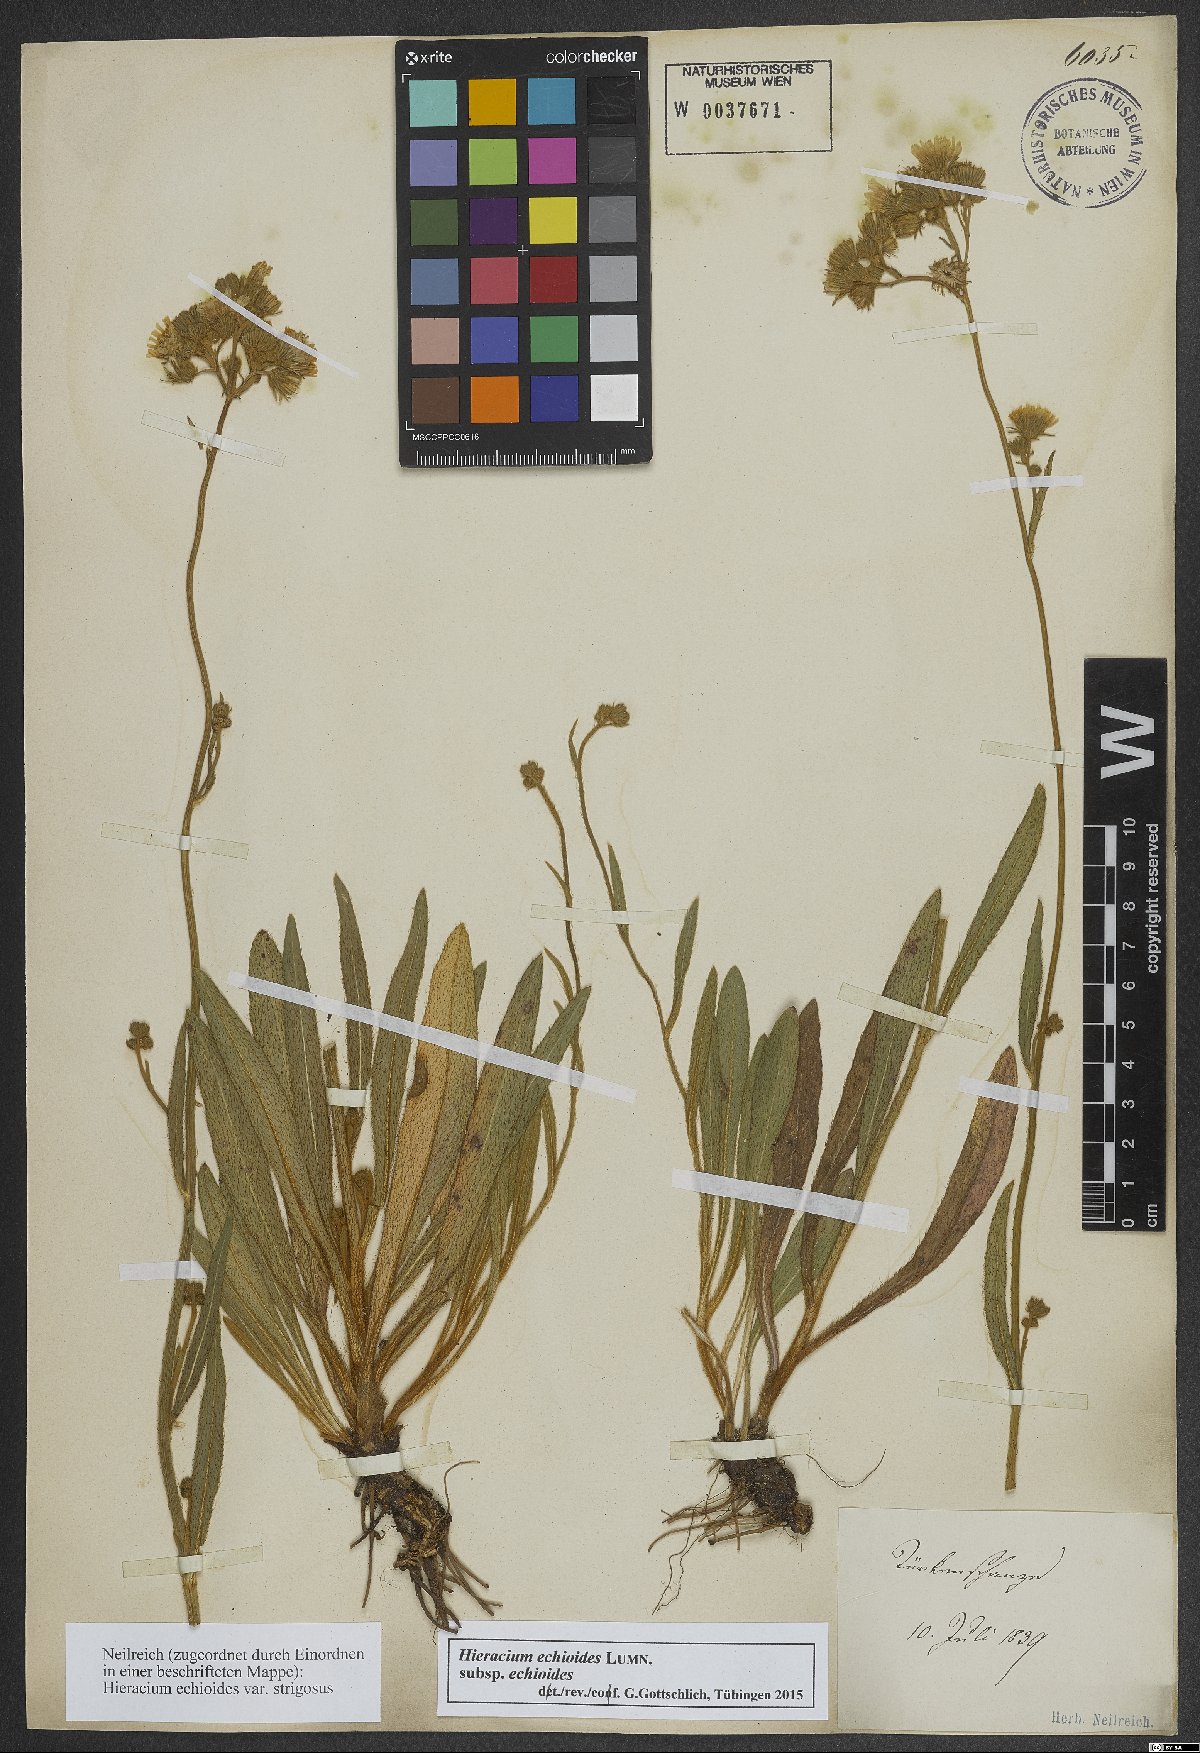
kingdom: Plantae
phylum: Tracheophyta
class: Magnoliopsida
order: Asterales
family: Asteraceae
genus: Pilosella
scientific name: Pilosella echioides
